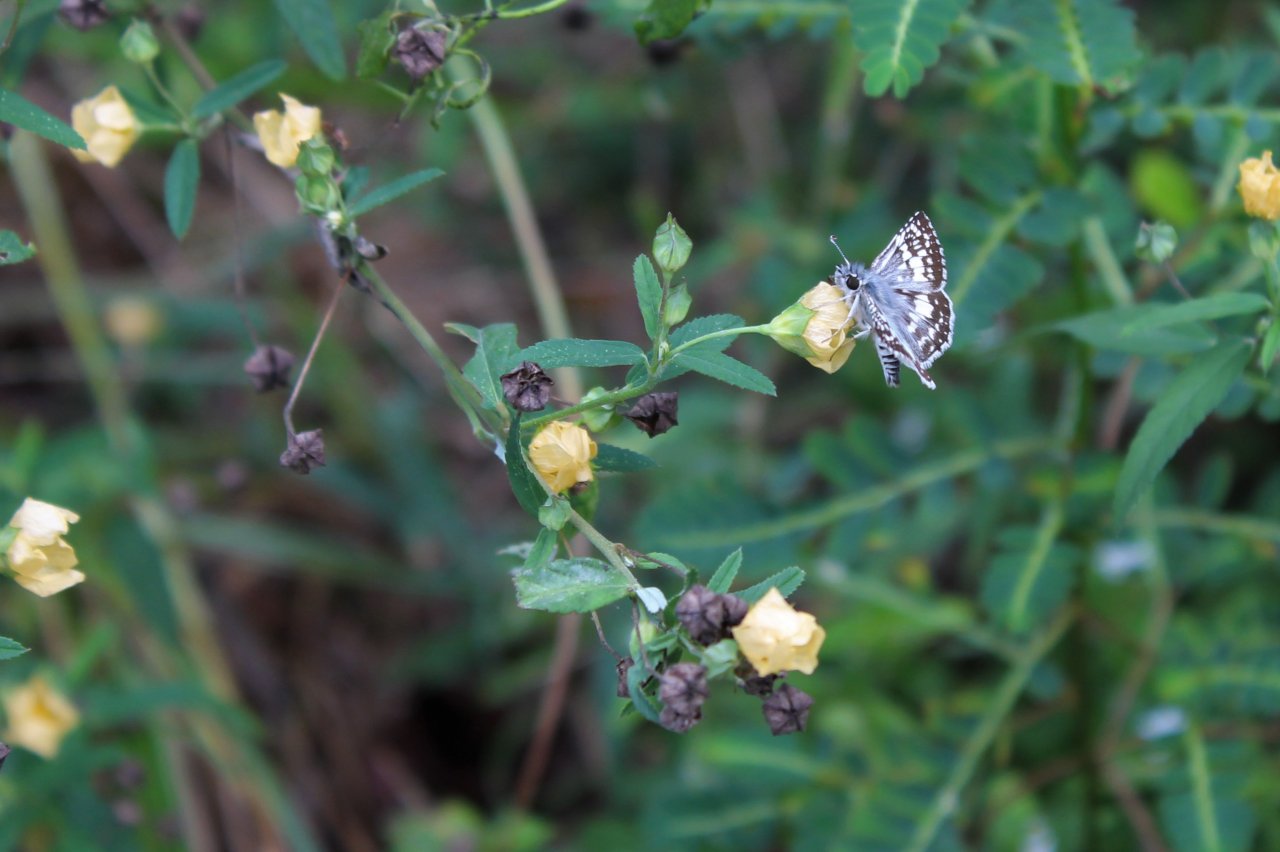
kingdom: Animalia
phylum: Arthropoda
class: Insecta
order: Lepidoptera
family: Hesperiidae
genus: Pyrgus
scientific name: Pyrgus communis
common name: Common Checkered-Skipper
